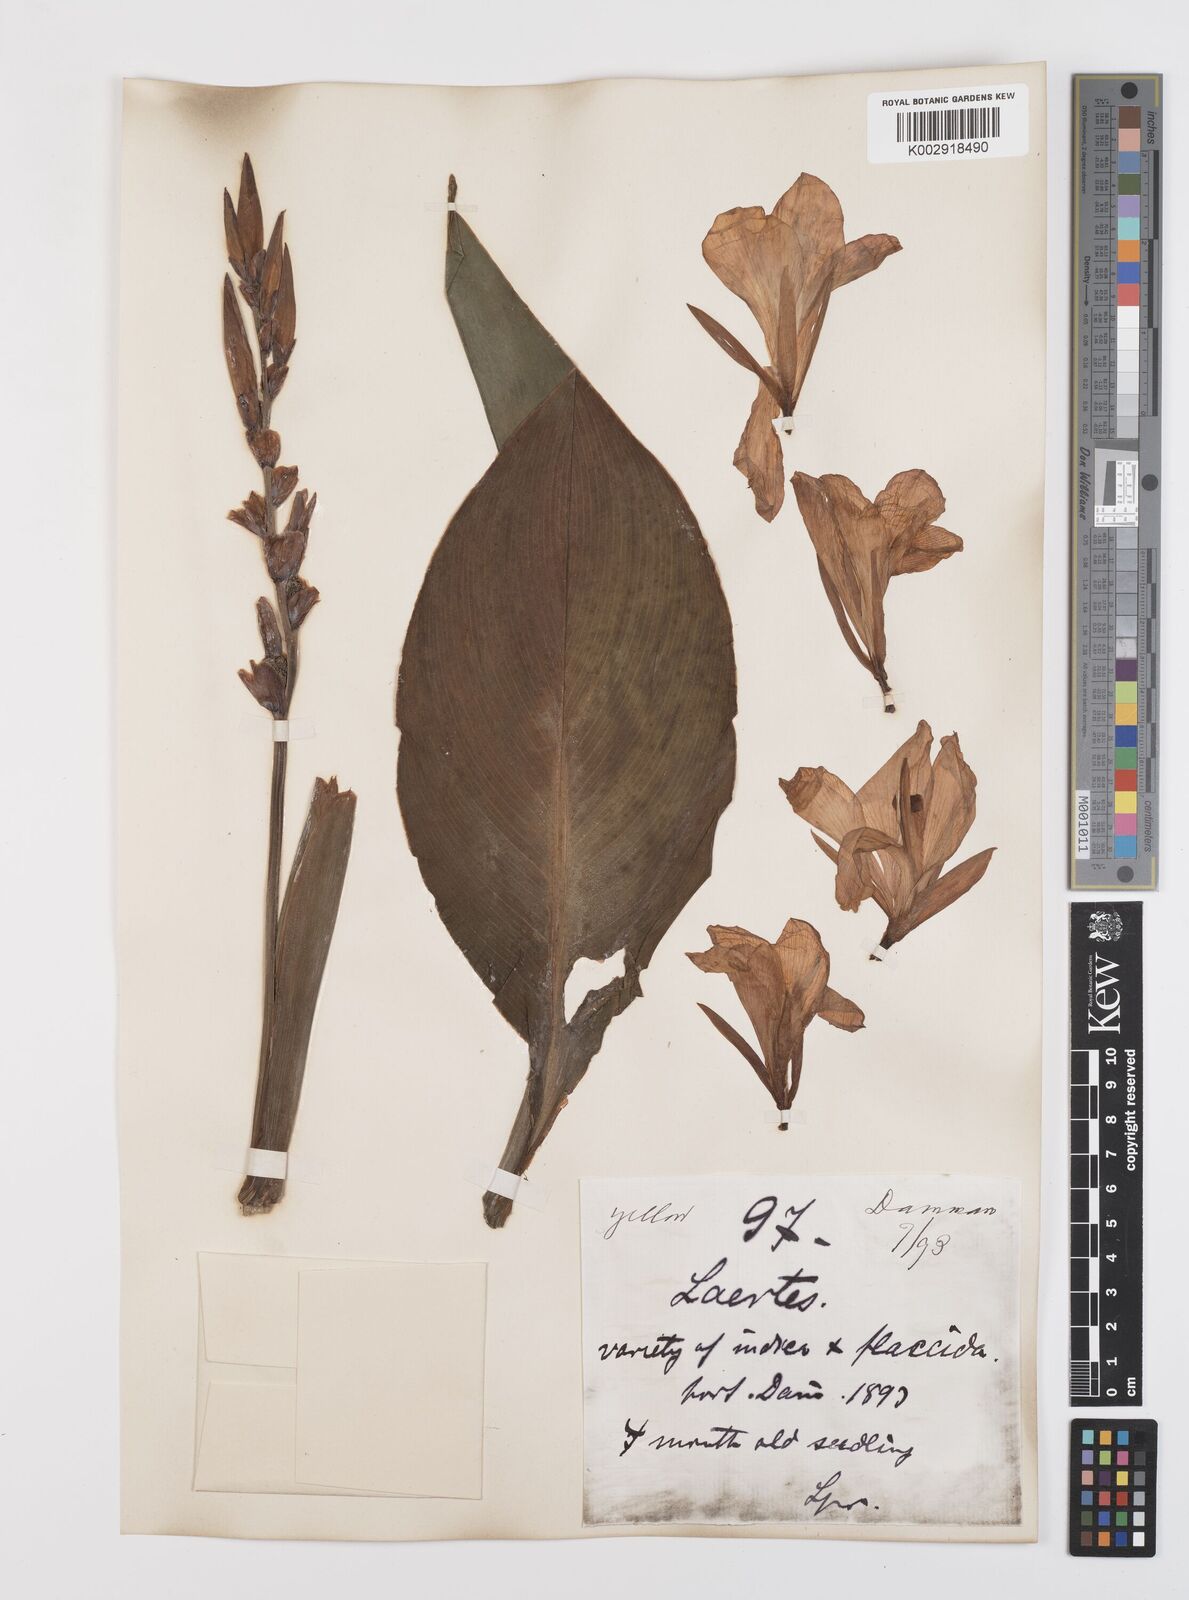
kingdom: Plantae
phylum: Tracheophyta
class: Liliopsida
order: Zingiberales
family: Cannaceae
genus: Canna
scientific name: Canna indica
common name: Indian shot
